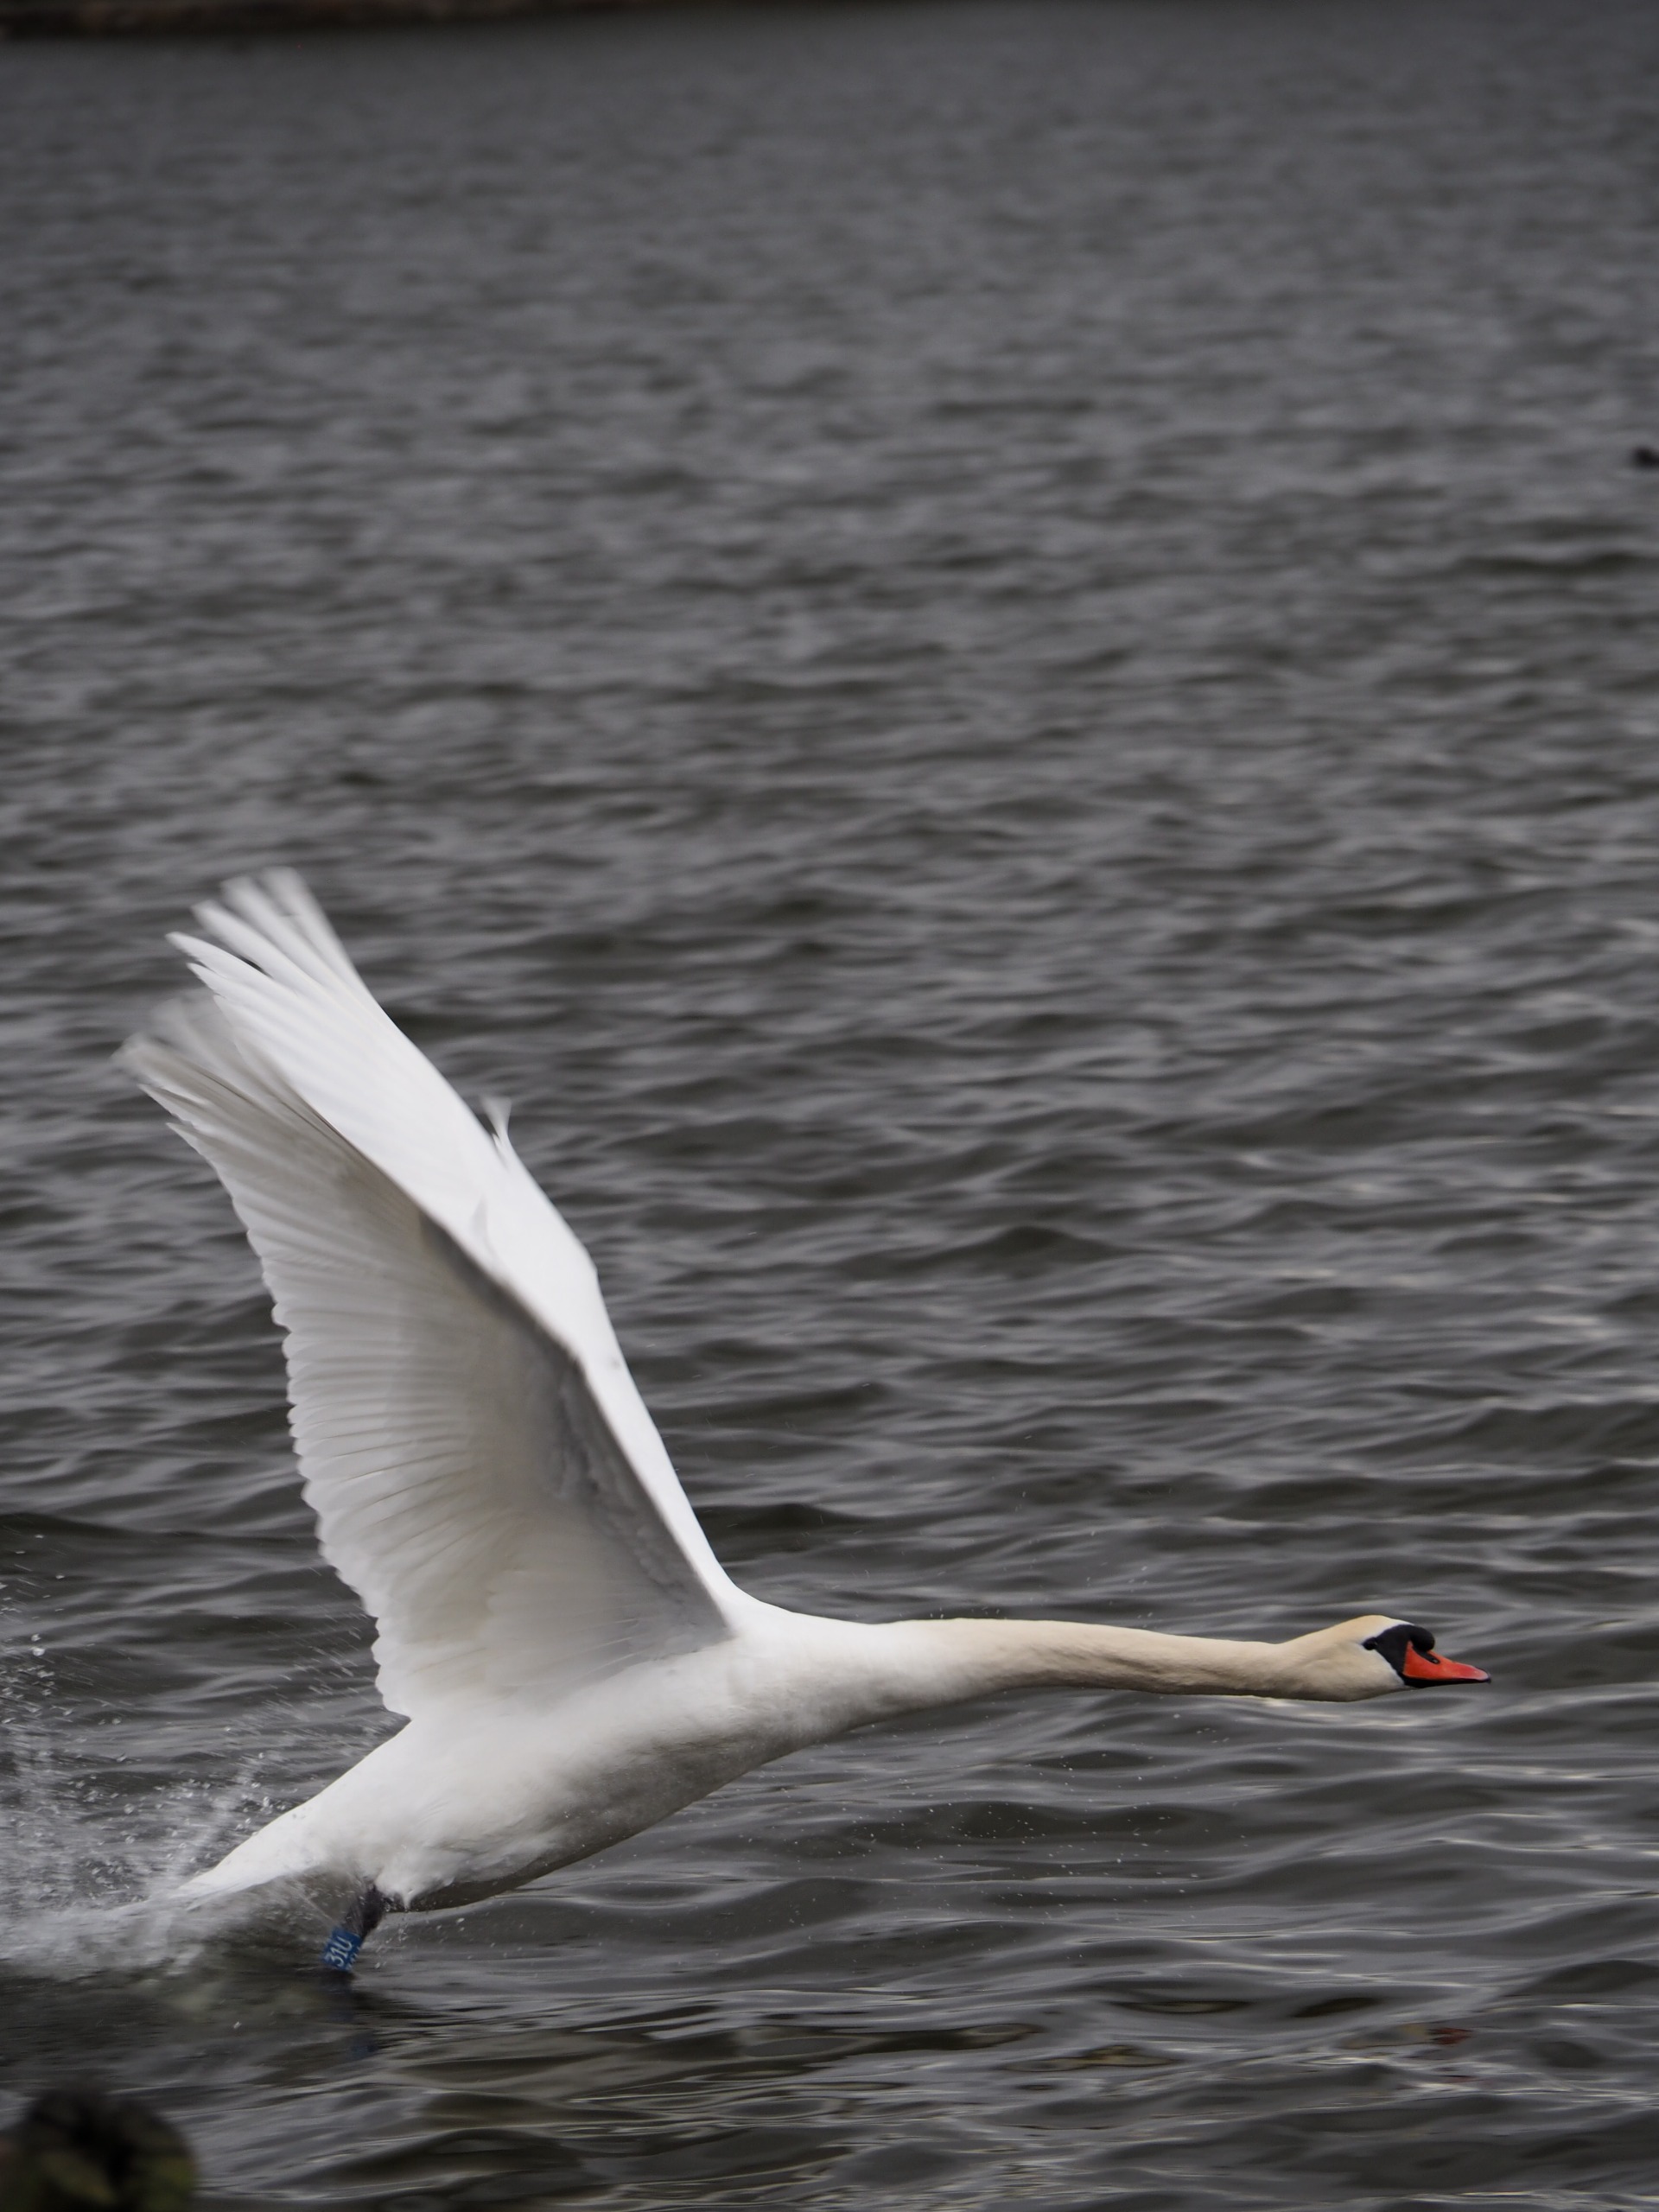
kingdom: Animalia
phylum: Chordata
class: Aves
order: Anseriformes
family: Anatidae
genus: Cygnus
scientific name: Cygnus olor
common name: Knopsvane
